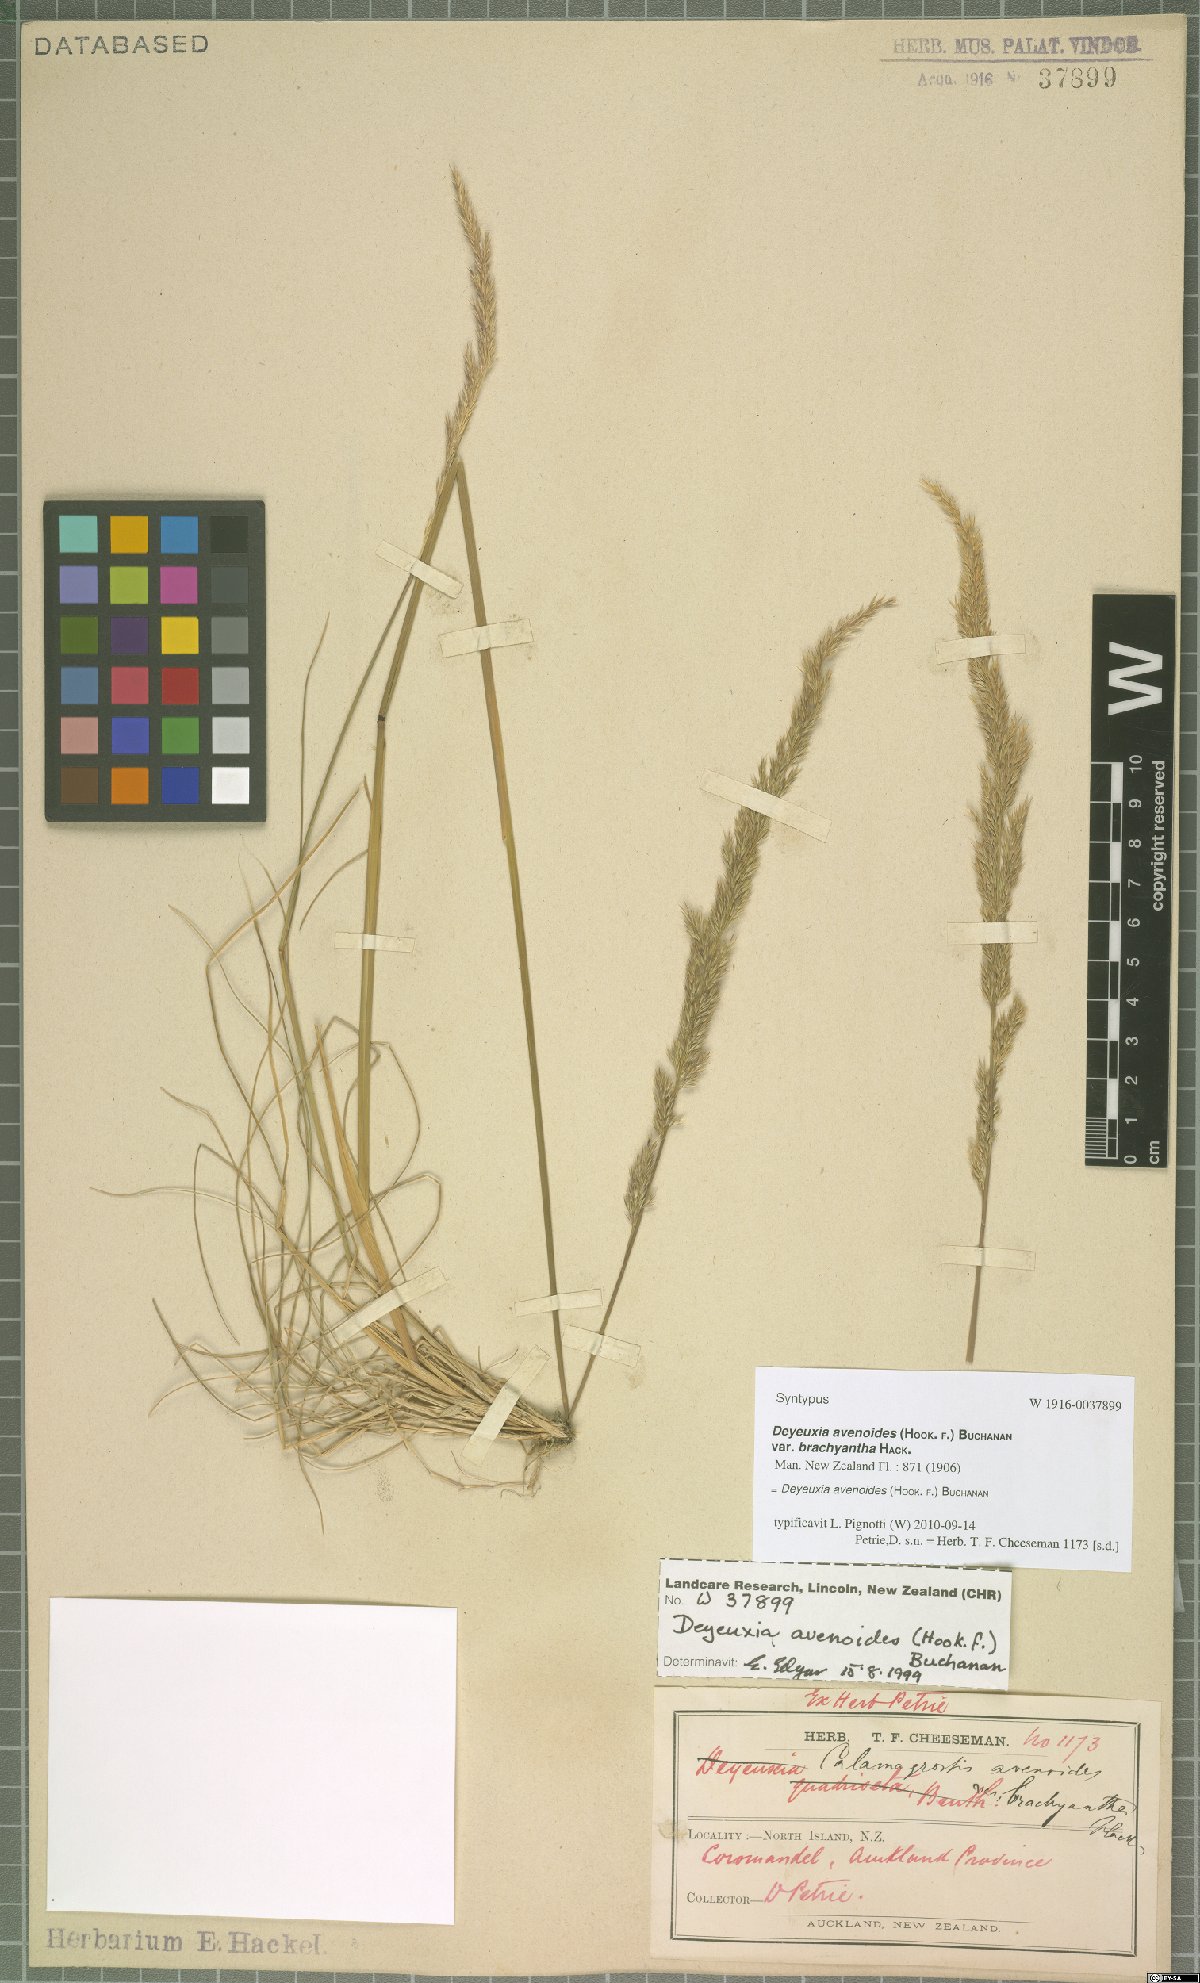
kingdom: Plantae
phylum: Tracheophyta
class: Liliopsida
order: Poales
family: Poaceae
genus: Calamagrostis
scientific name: Calamagrostis avenoides
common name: Mountain oat grass
